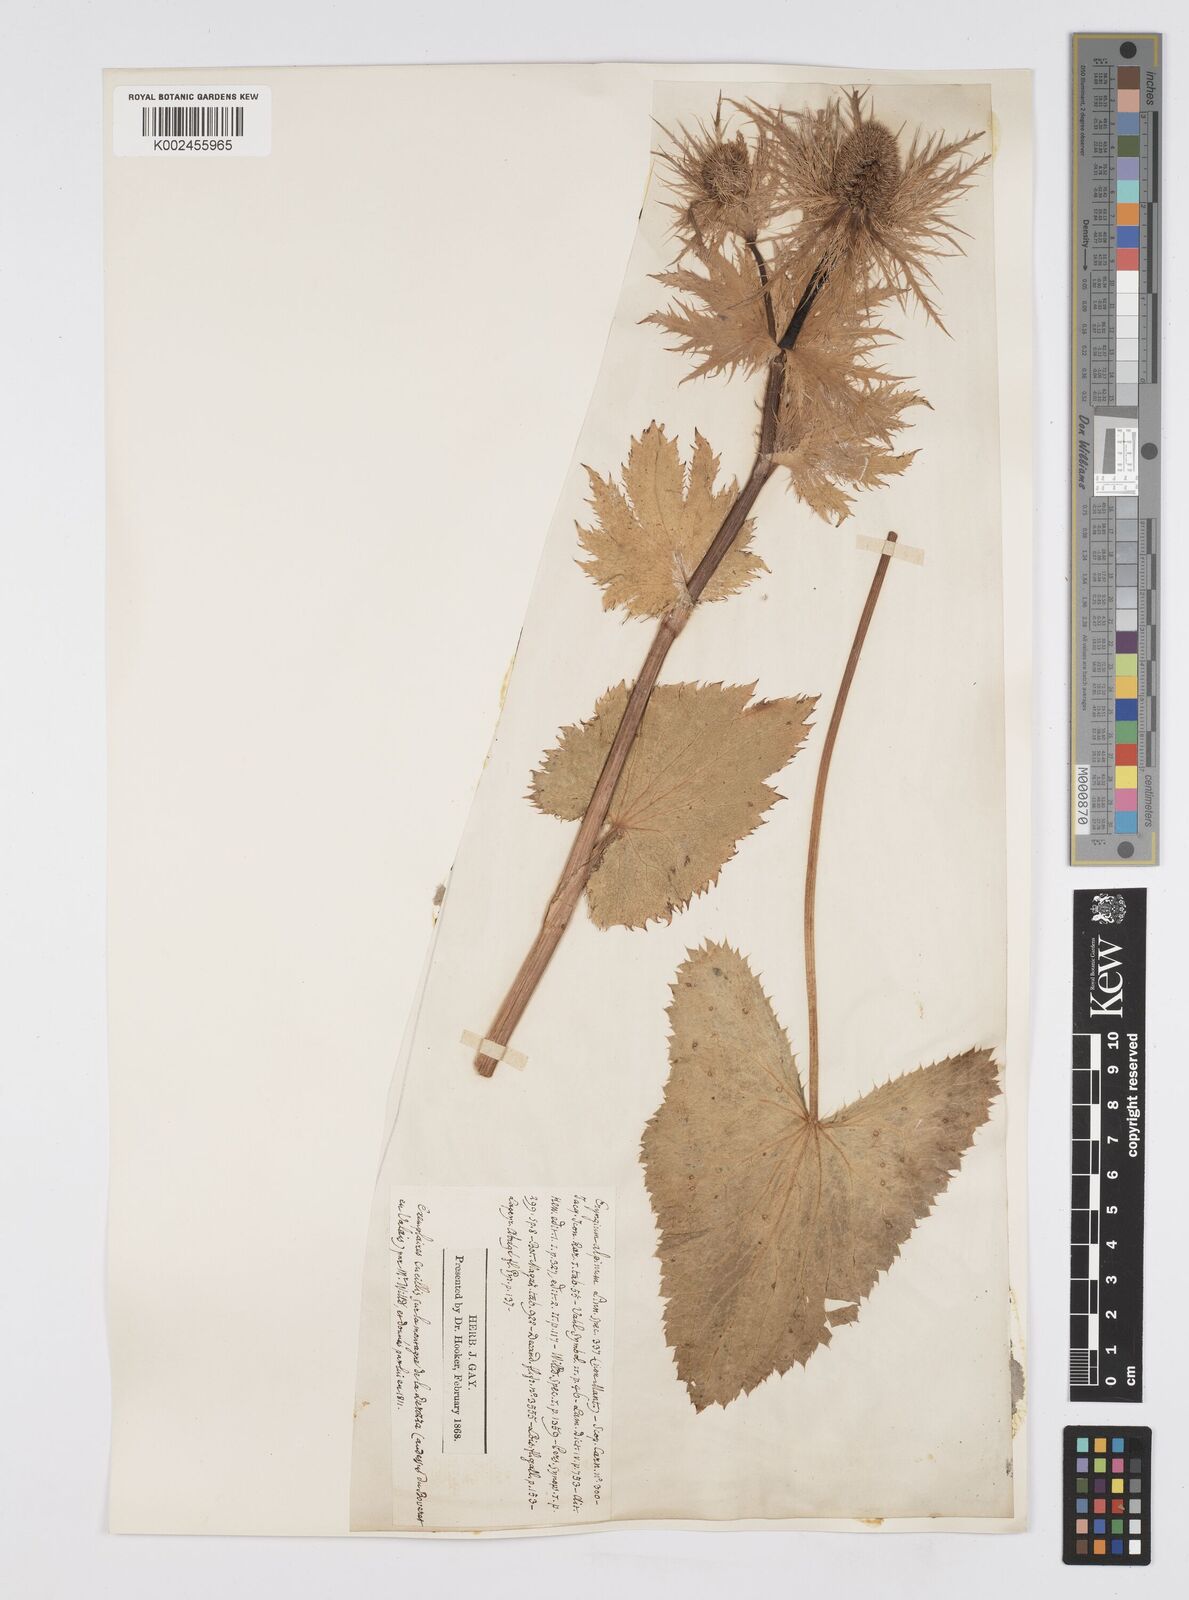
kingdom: Plantae
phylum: Tracheophyta
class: Magnoliopsida
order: Apiales
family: Apiaceae
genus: Eryngium
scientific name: Eryngium alpinum
